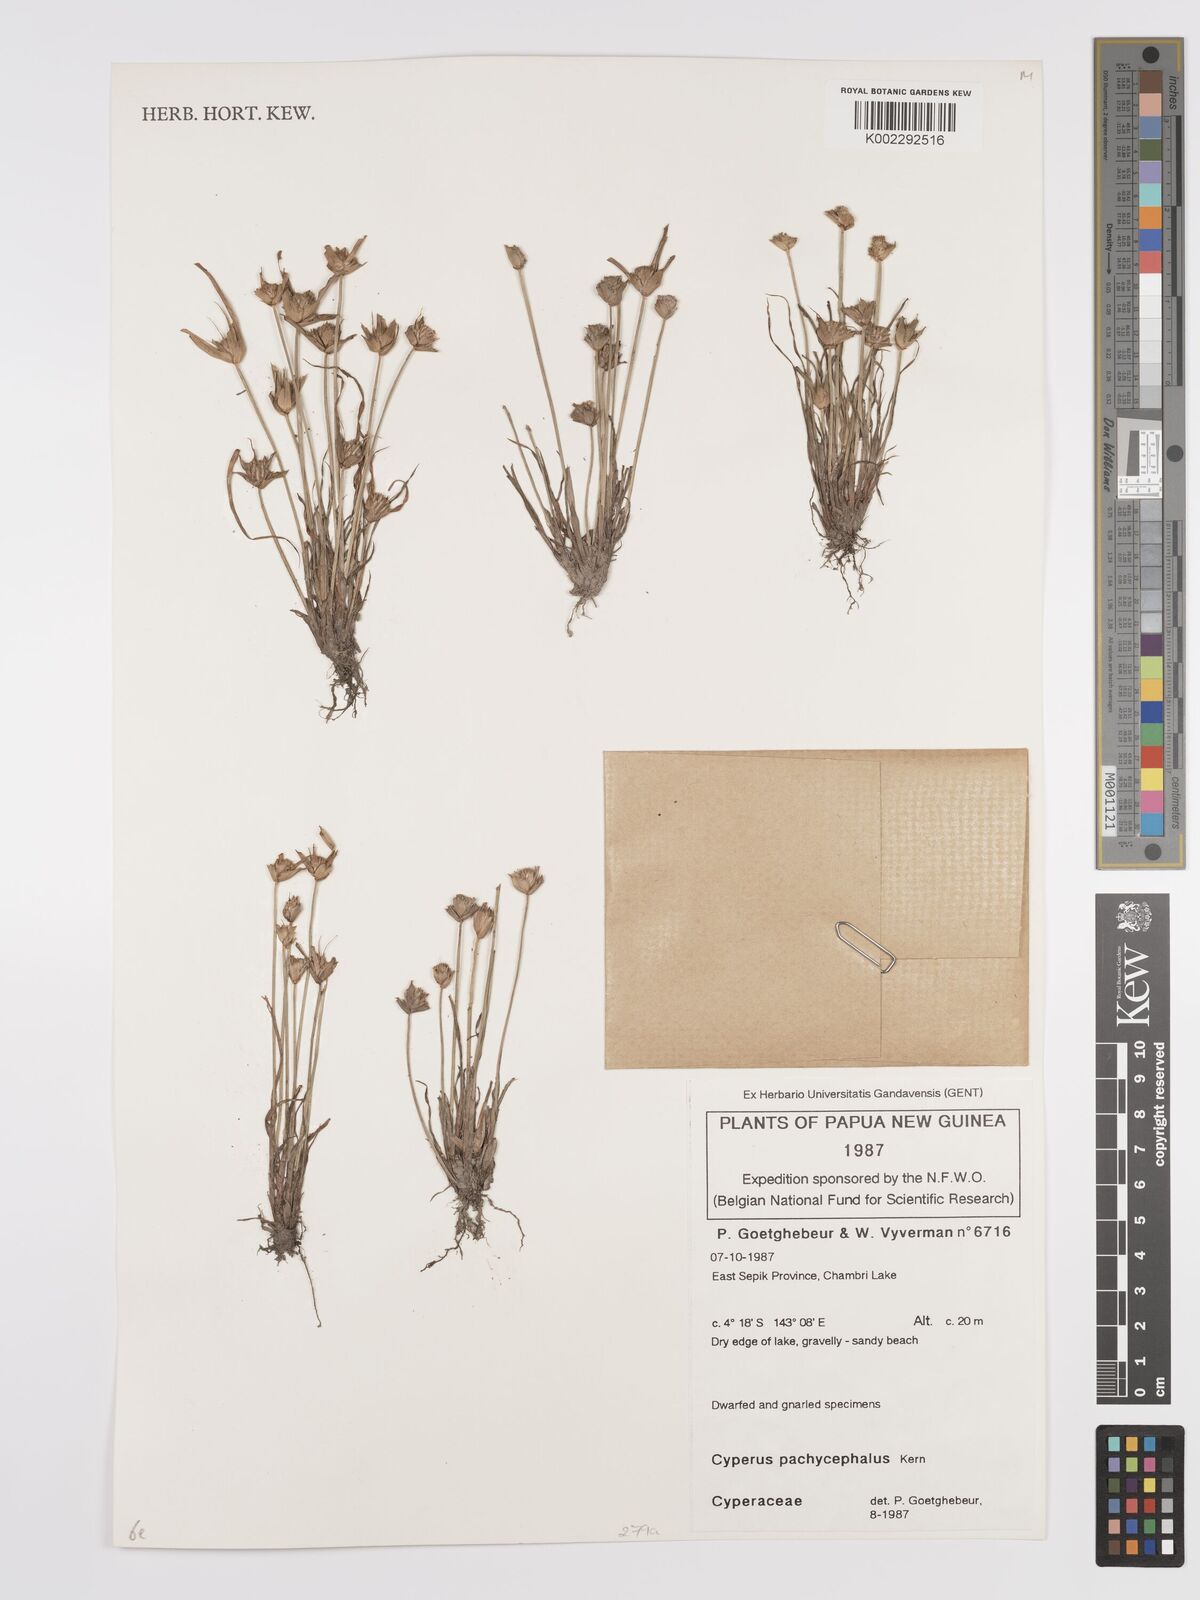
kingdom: Plantae
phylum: Tracheophyta
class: Liliopsida
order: Poales
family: Cyperaceae
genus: Cyperus
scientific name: Cyperus pachycephalus
